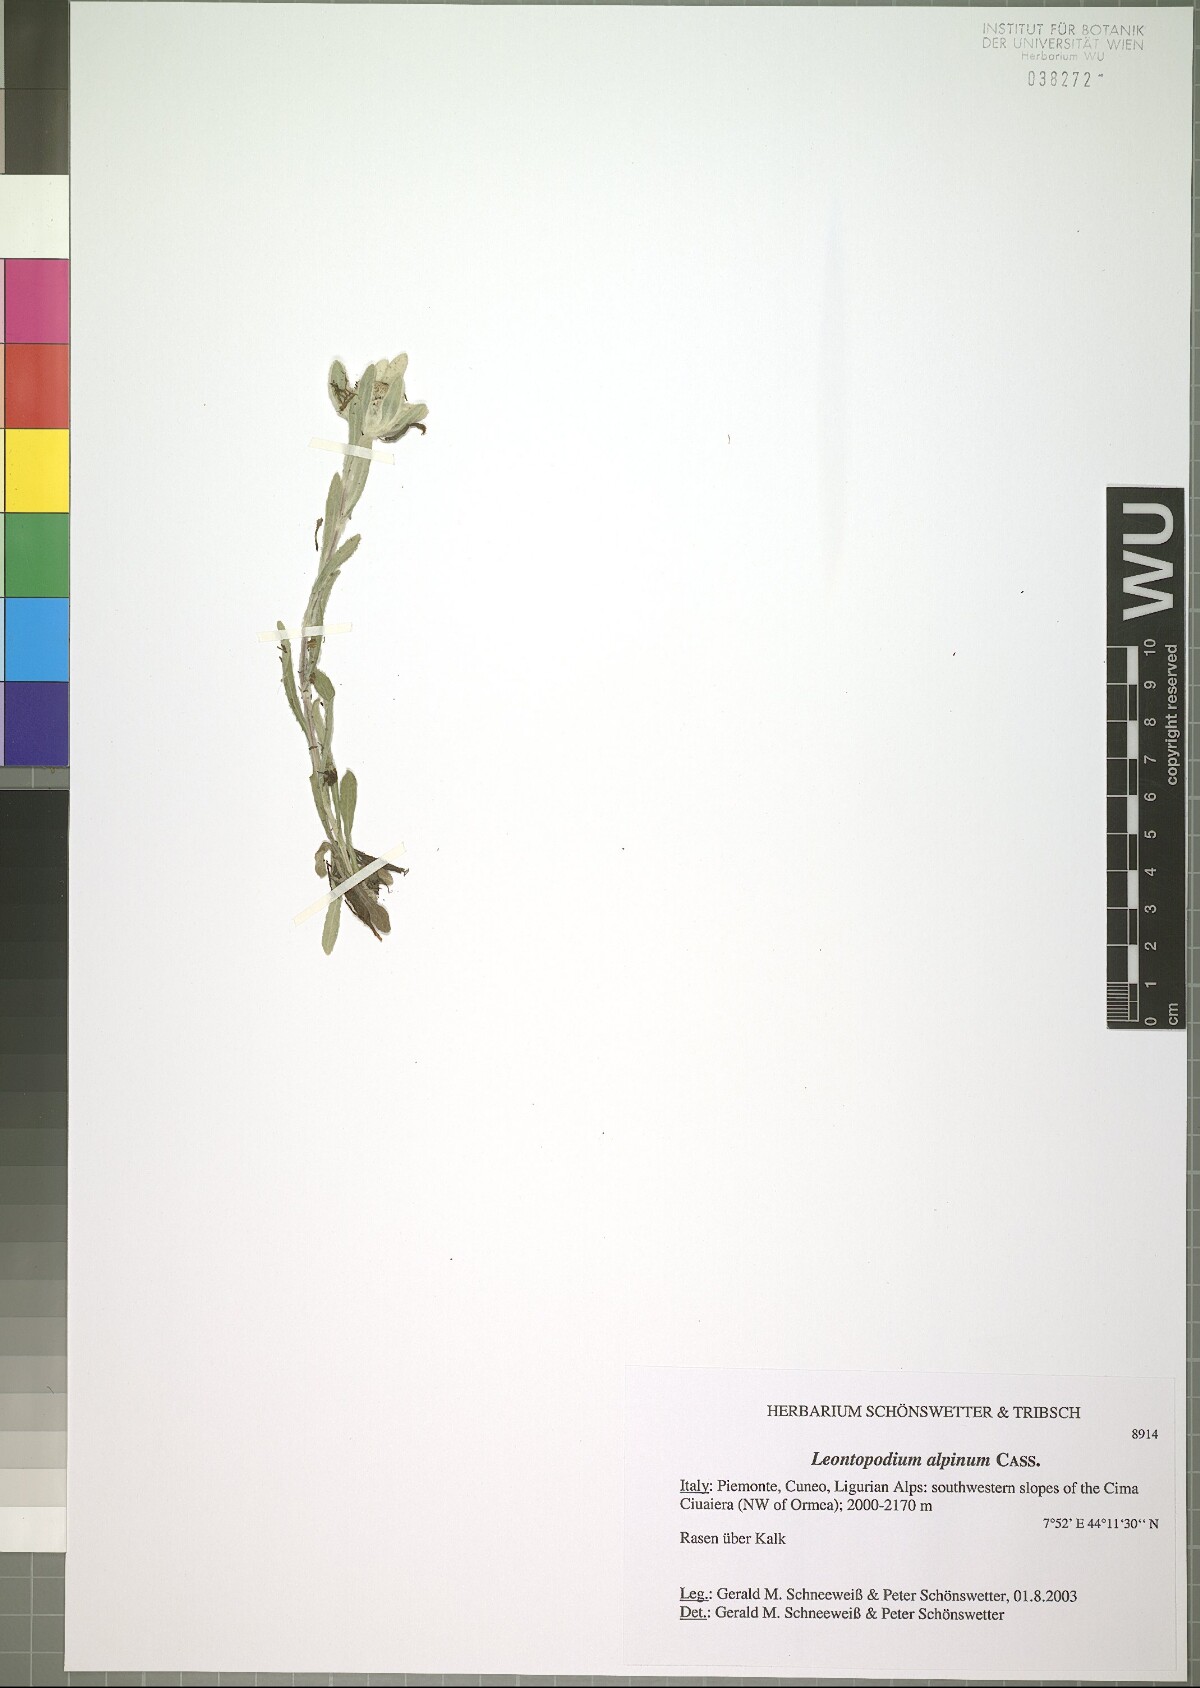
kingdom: Plantae
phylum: Tracheophyta
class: Magnoliopsida
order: Asterales
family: Asteraceae
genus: Leontopodium
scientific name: Leontopodium nivale
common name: Edelweiss
